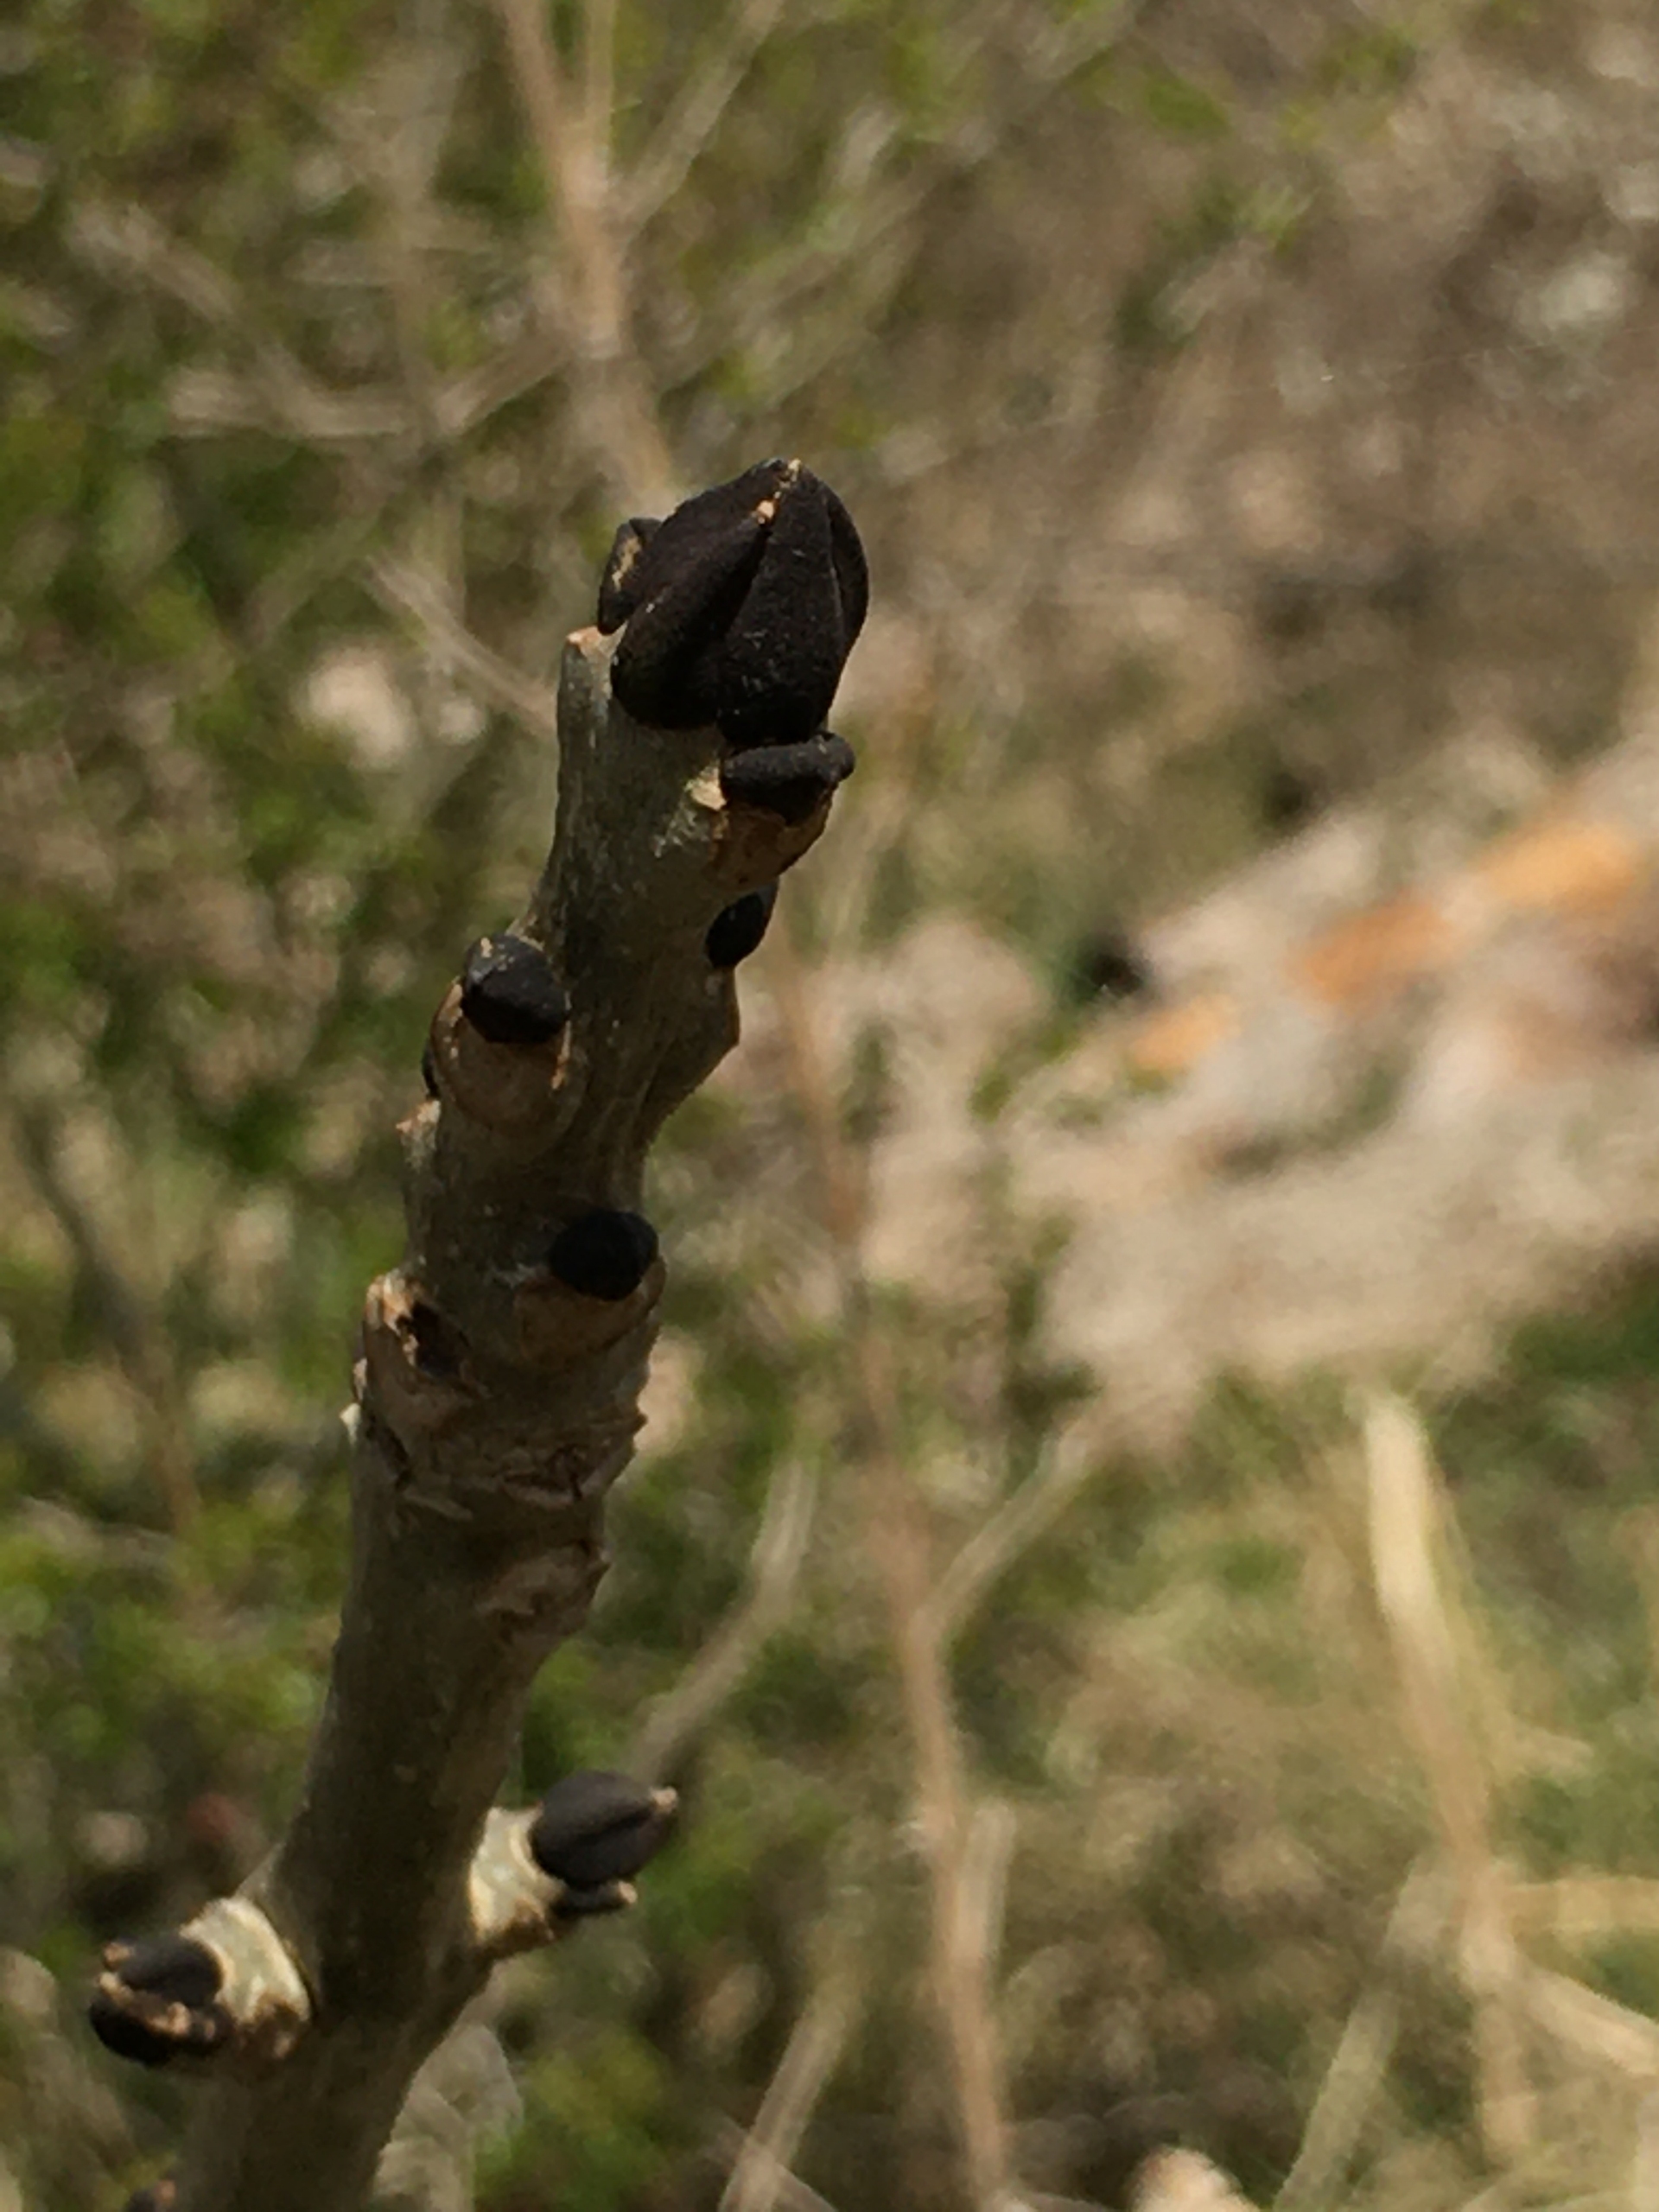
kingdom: Plantae
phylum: Tracheophyta
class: Magnoliopsida
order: Lamiales
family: Oleaceae
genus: Fraxinus
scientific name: Fraxinus excelsior
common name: Ask
